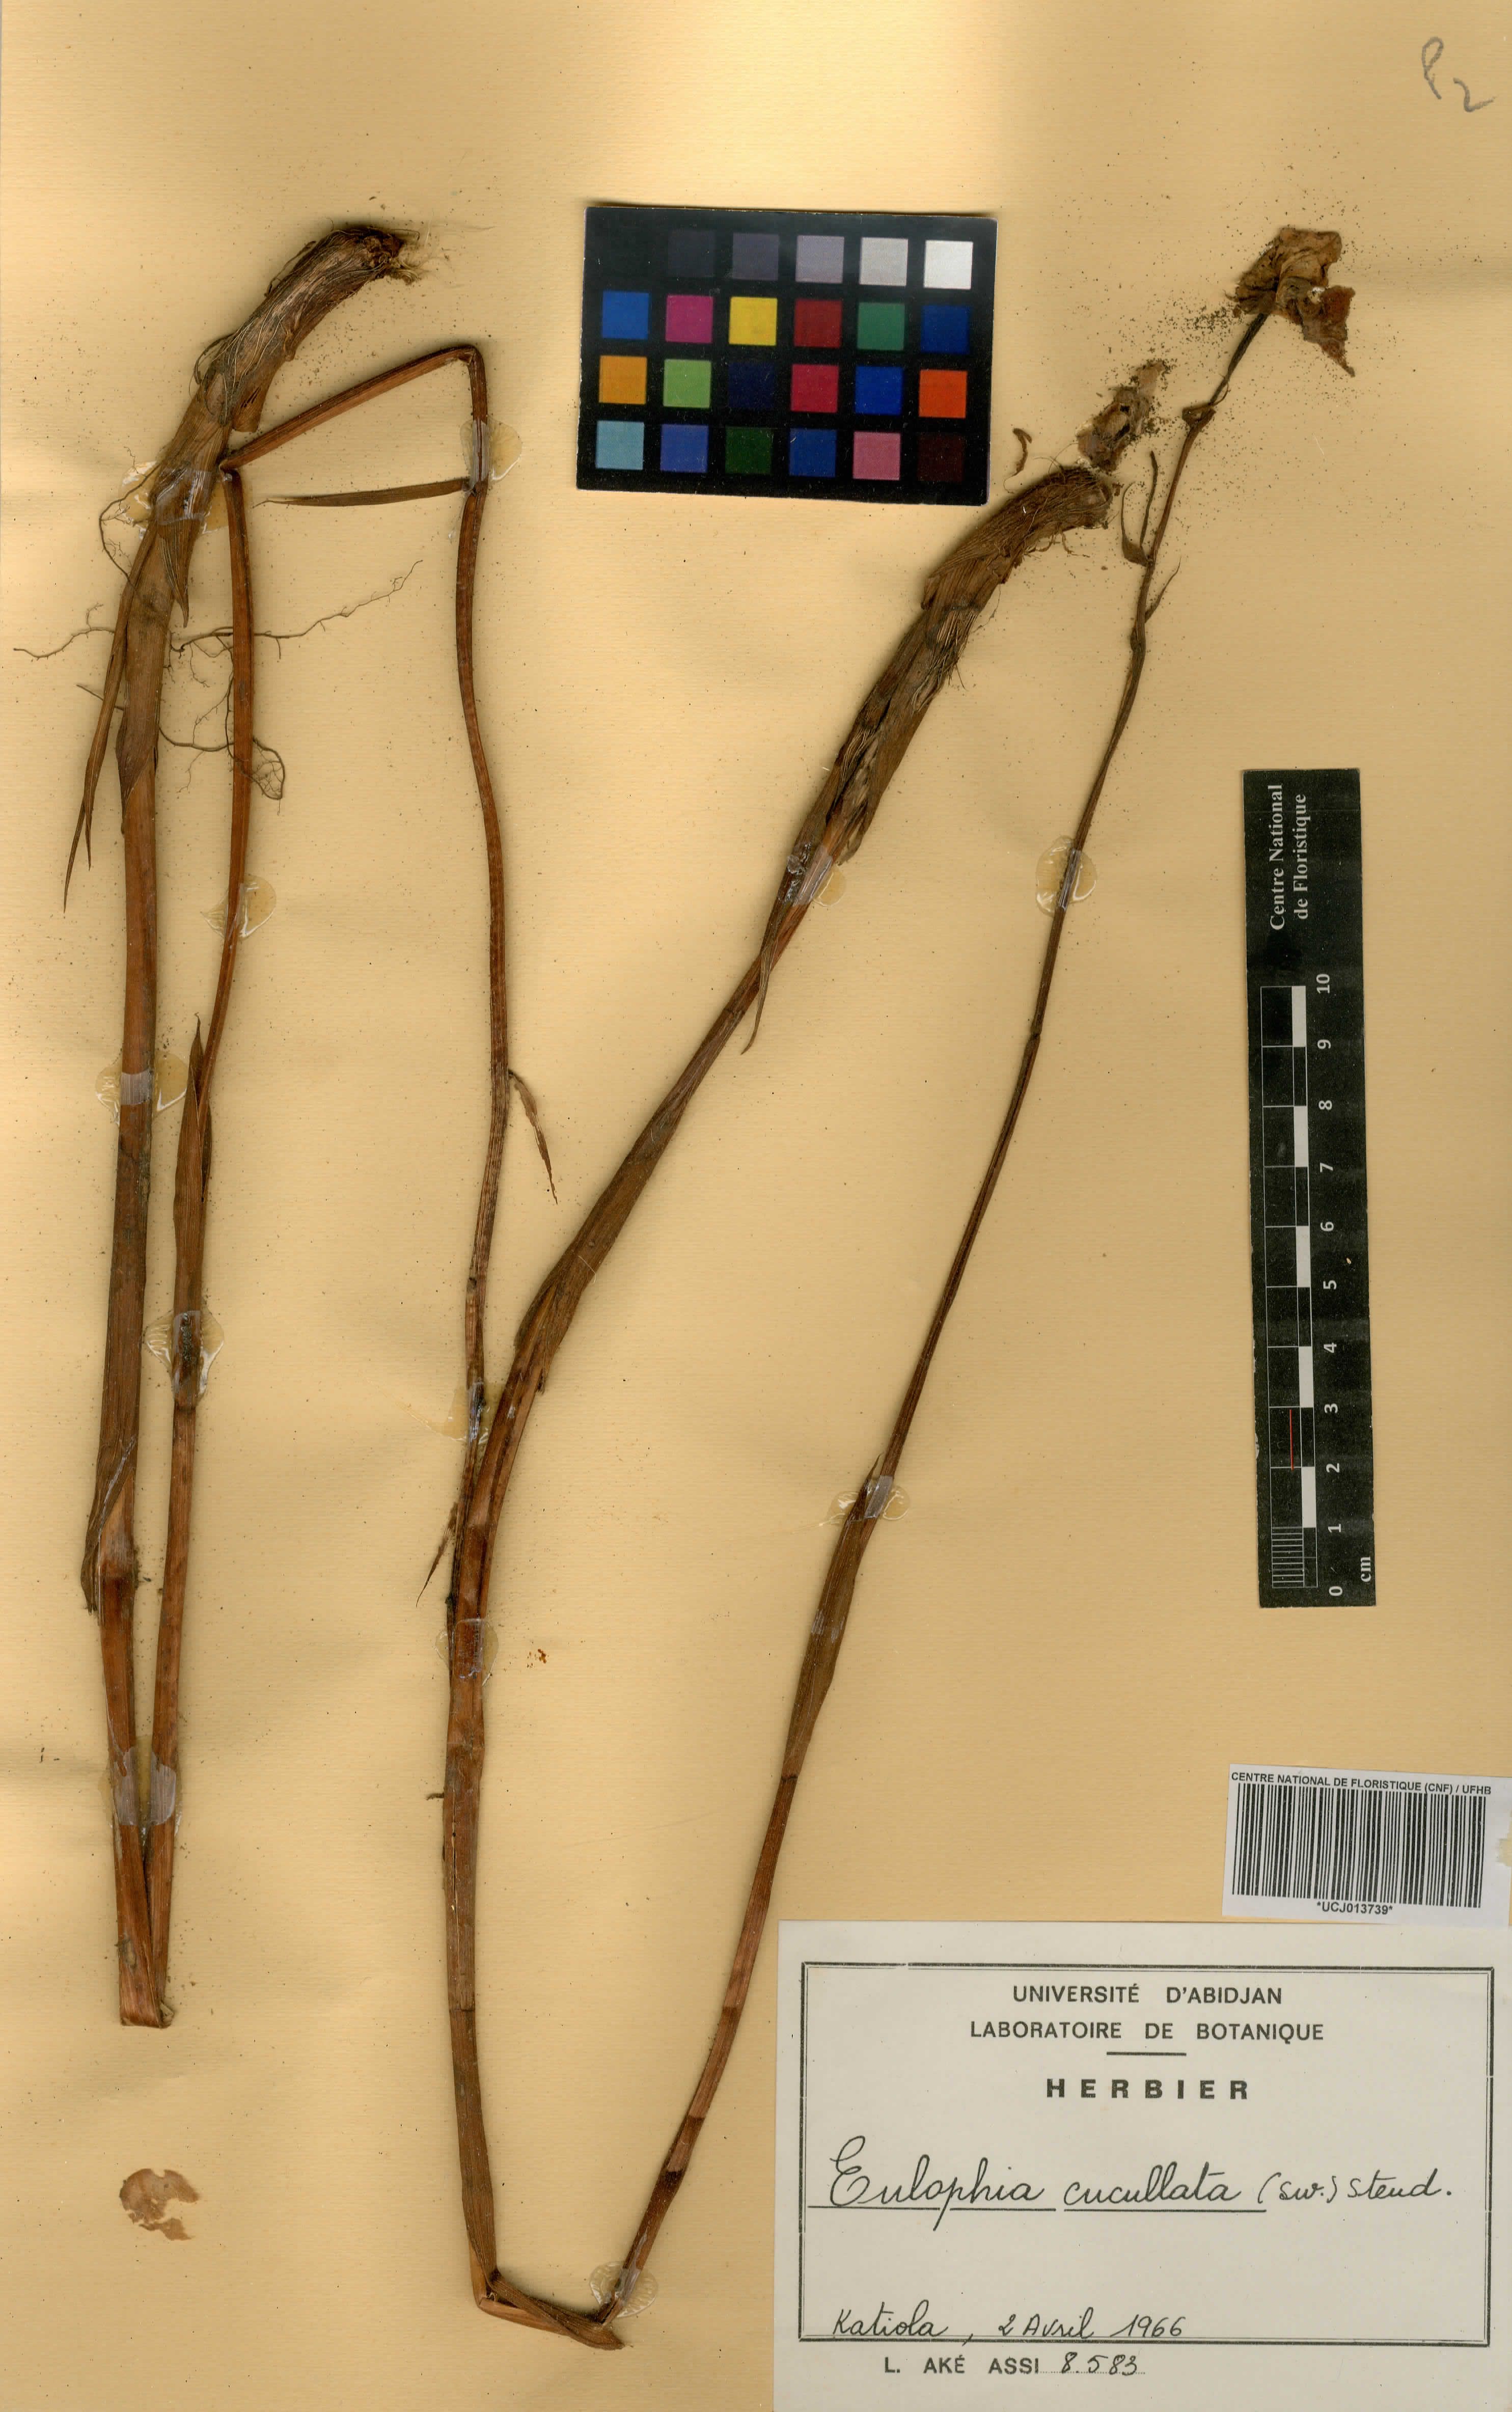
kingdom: Plantae
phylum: Tracheophyta
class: Liliopsida
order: Asparagales
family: Orchidaceae
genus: Eulophia
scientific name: Eulophia cucullata
